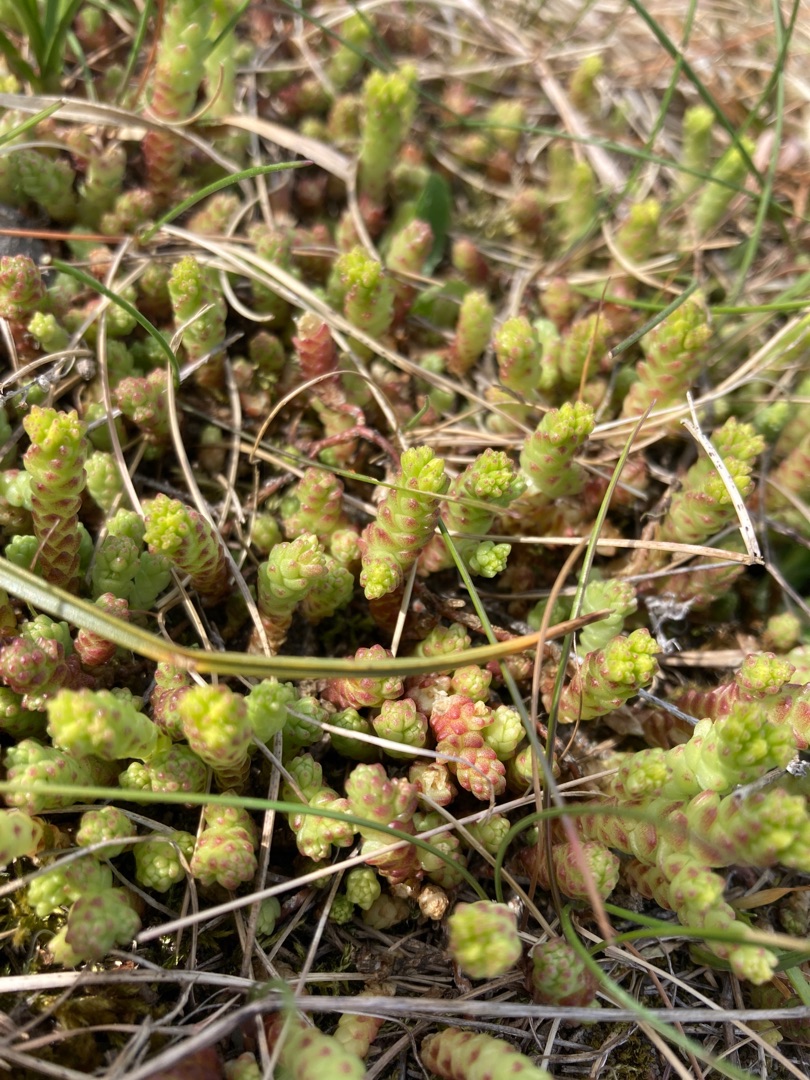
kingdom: Plantae
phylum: Tracheophyta
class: Magnoliopsida
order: Saxifragales
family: Crassulaceae
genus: Sedum
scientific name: Sedum acre
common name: Bidende stenurt
